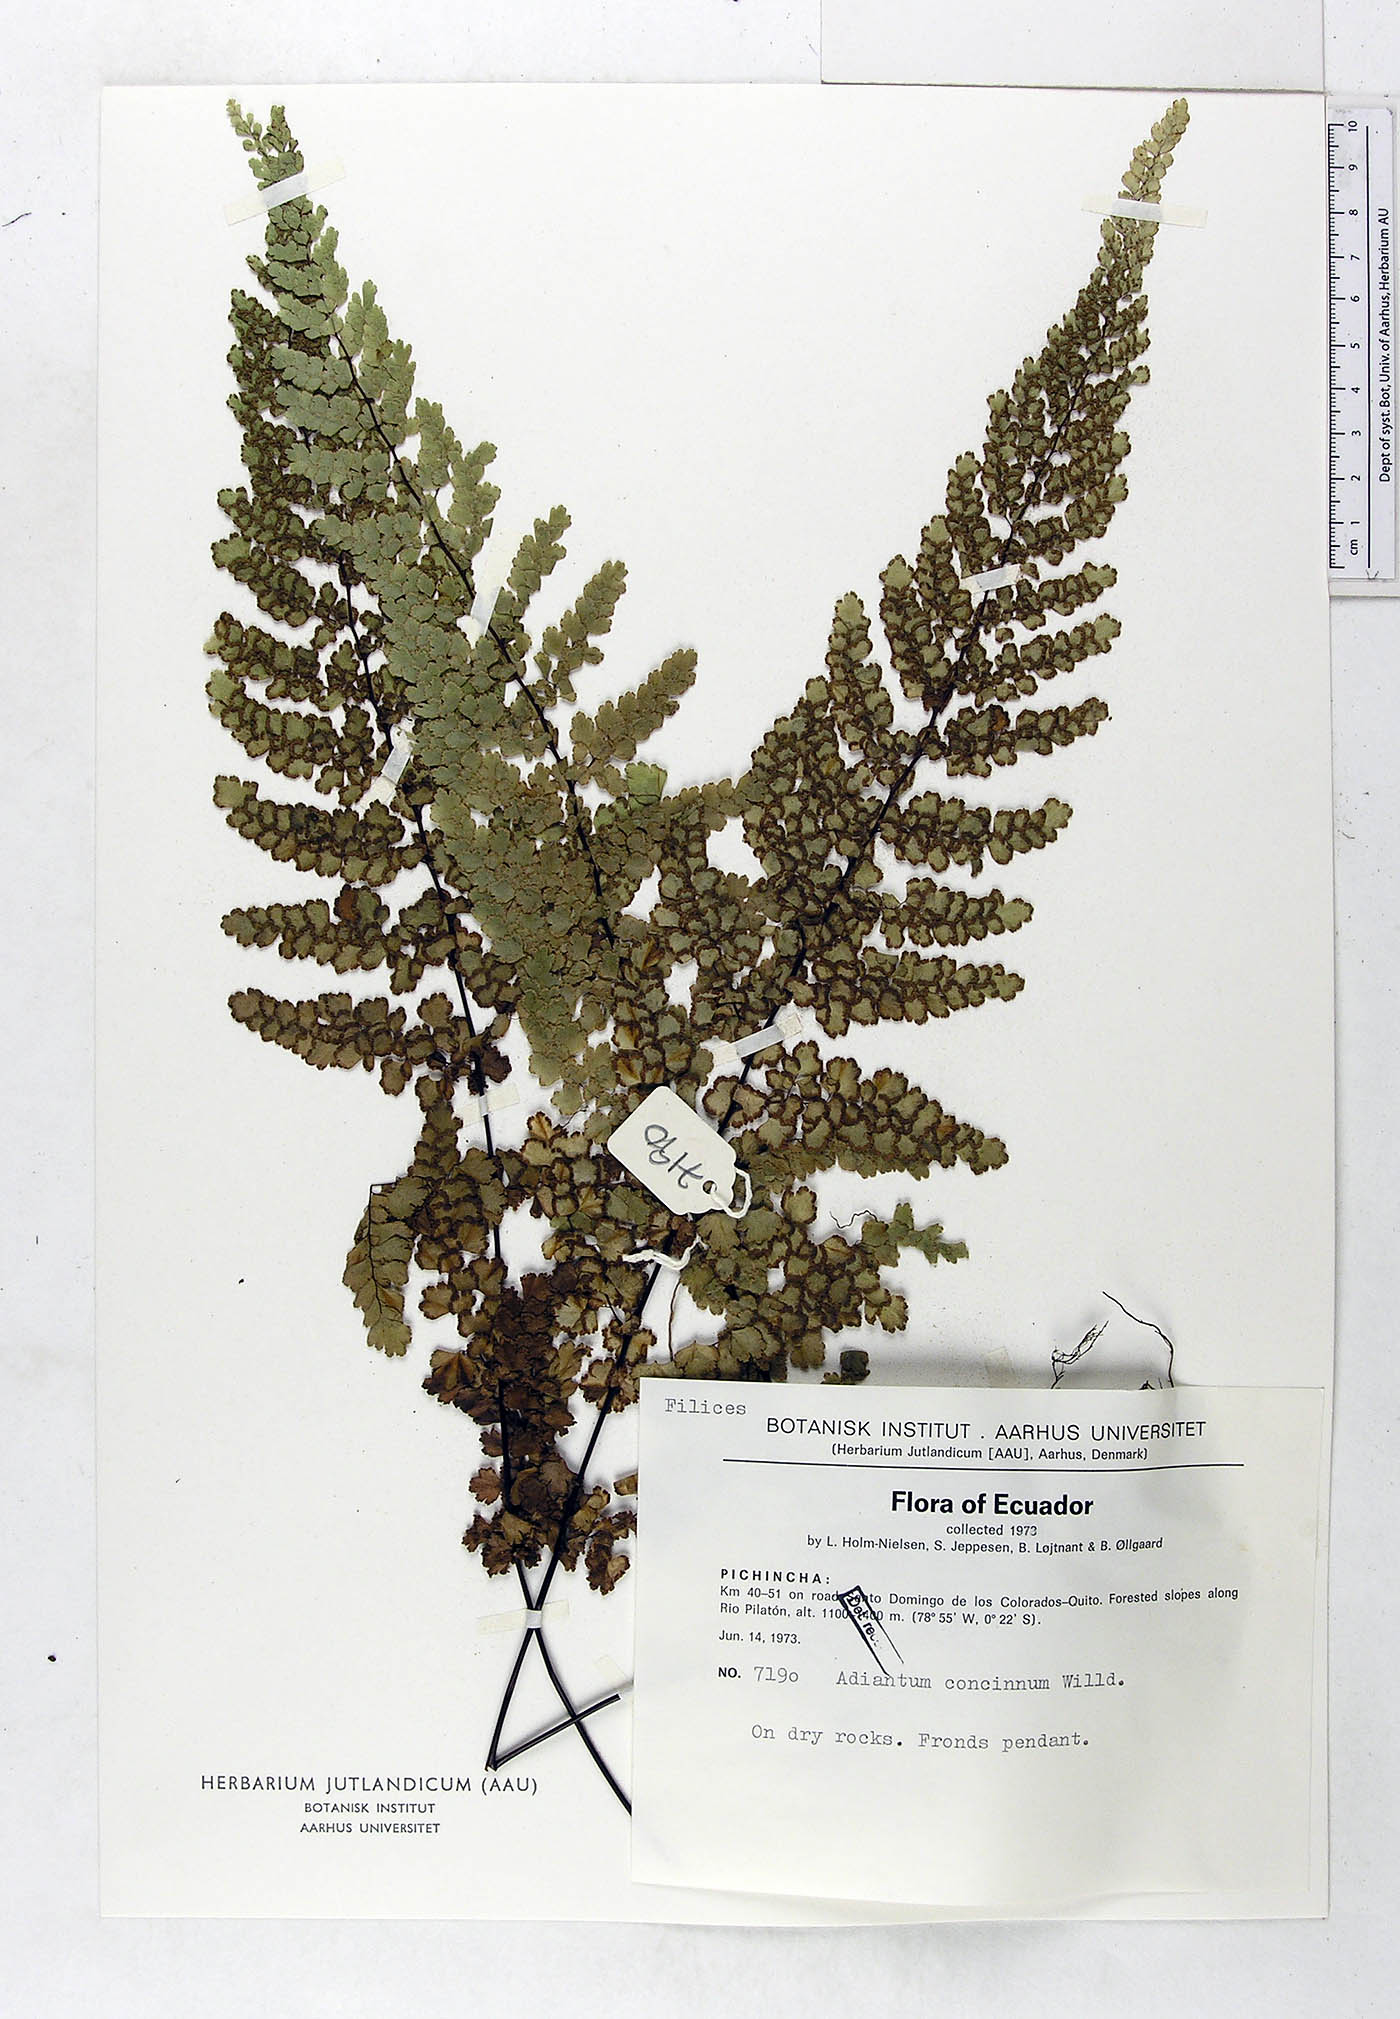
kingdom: Plantae
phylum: Tracheophyta
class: Polypodiopsida
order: Polypodiales
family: Pteridaceae
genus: Adiantum
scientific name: Adiantum concinnum
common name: Brittle maidenhair fern
